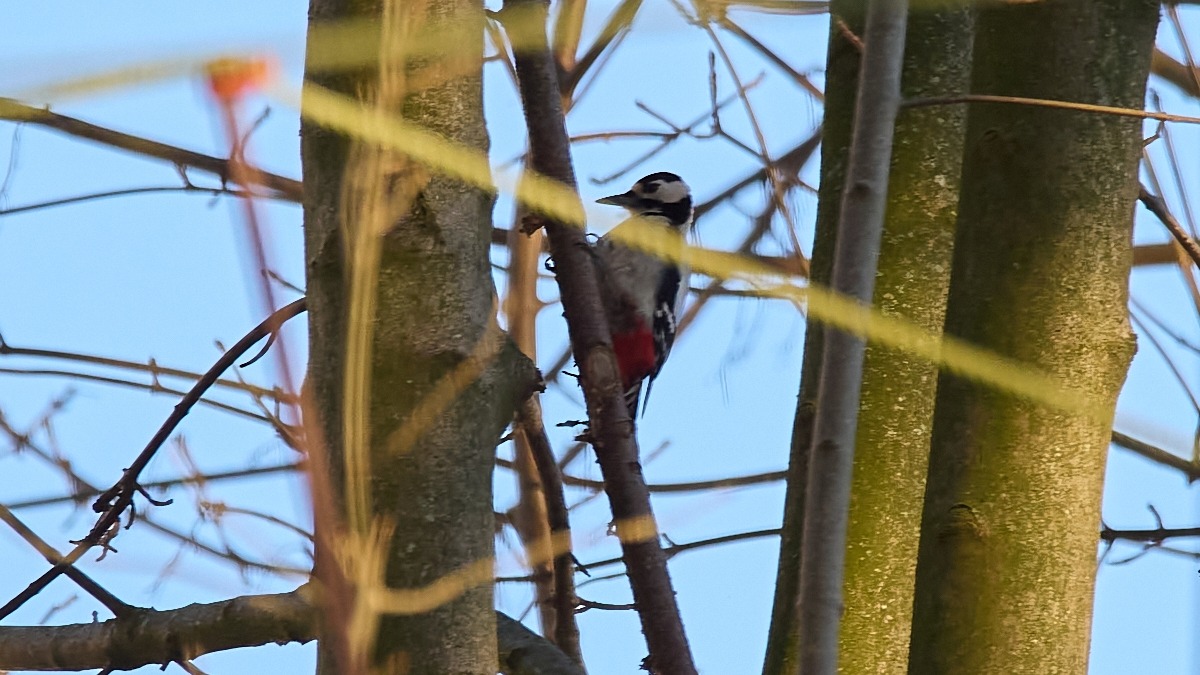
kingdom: Animalia
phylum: Chordata
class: Aves
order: Piciformes
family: Picidae
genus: Dendrocopos
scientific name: Dendrocopos major
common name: Stor flagspætte
